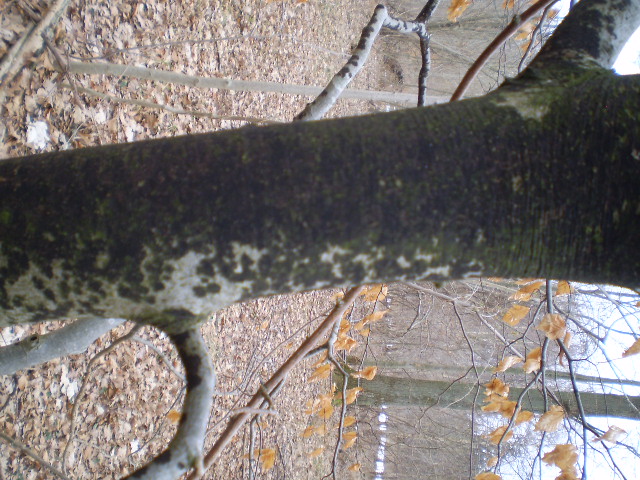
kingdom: Fungi
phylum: Ascomycota
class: Leotiomycetes
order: Rhytismatales
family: Ascodichaenaceae
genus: Ascodichaena
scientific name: Ascodichaena rugosa
